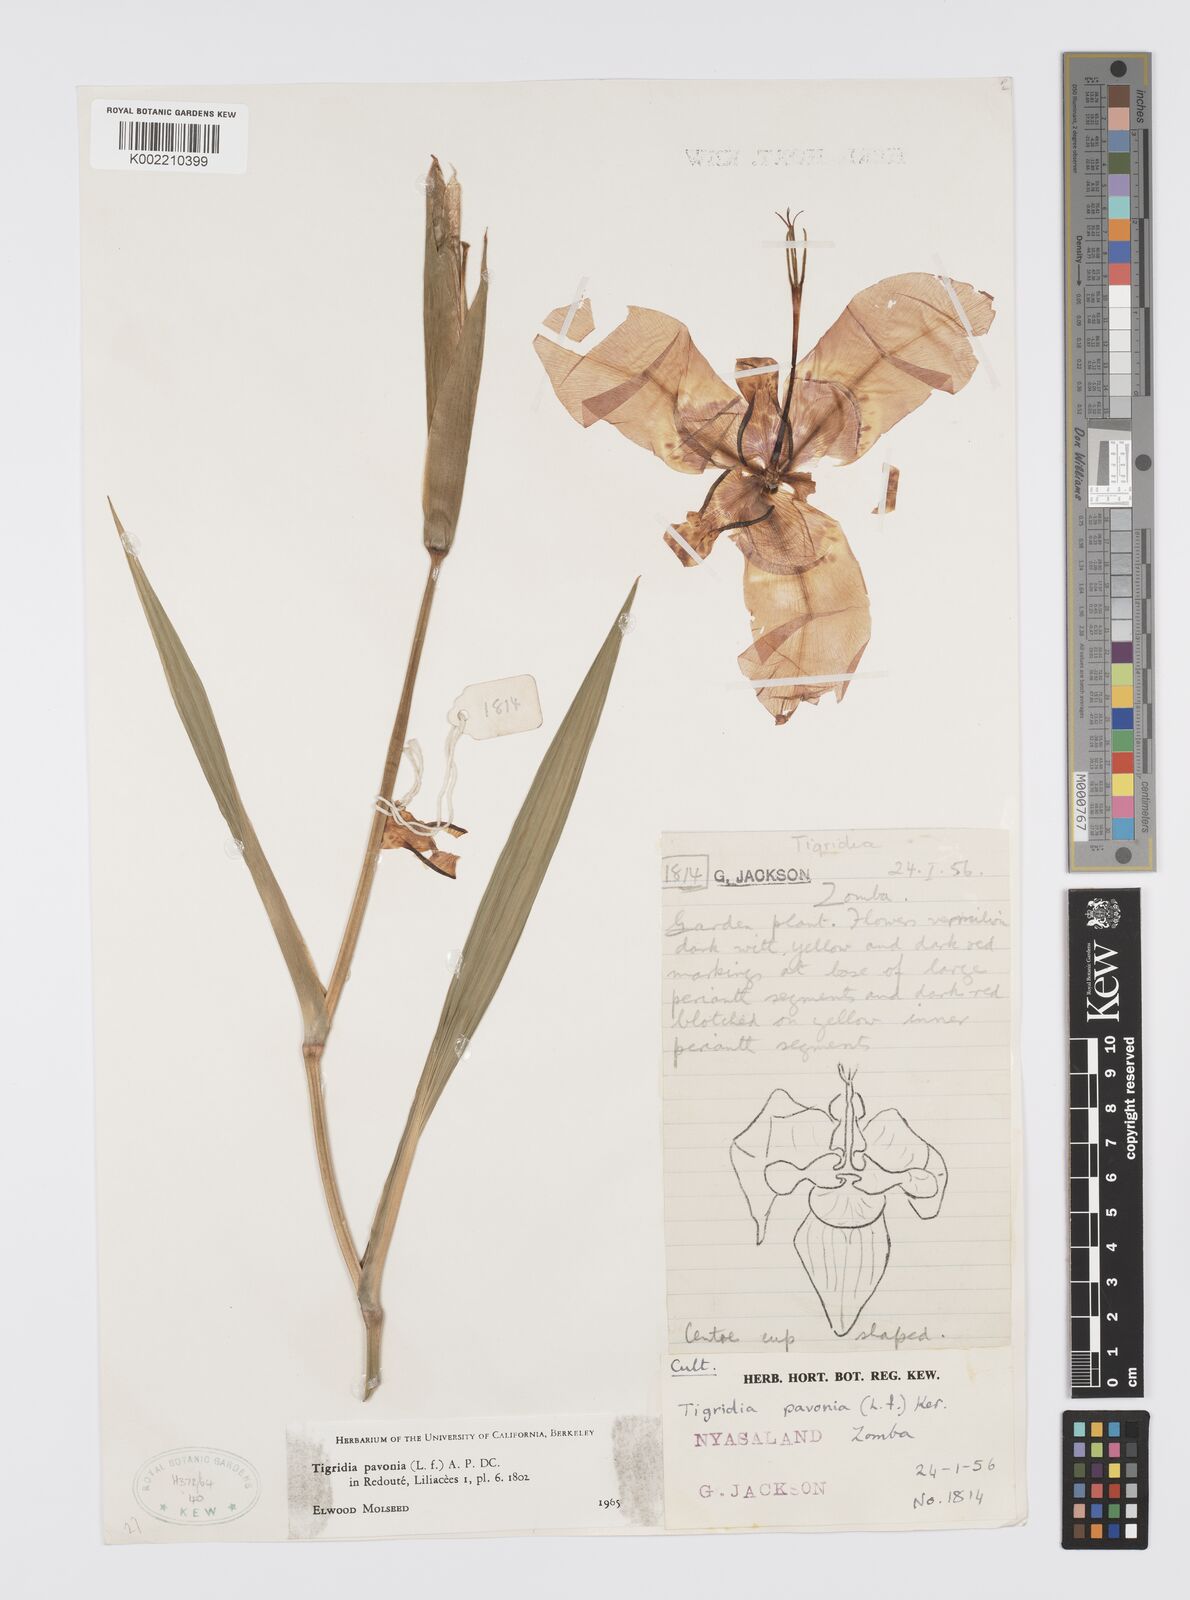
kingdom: Plantae
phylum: Tracheophyta
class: Liliopsida
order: Asparagales
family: Iridaceae
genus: Tigridia
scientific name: Tigridia pavonia
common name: Peacock-flower
